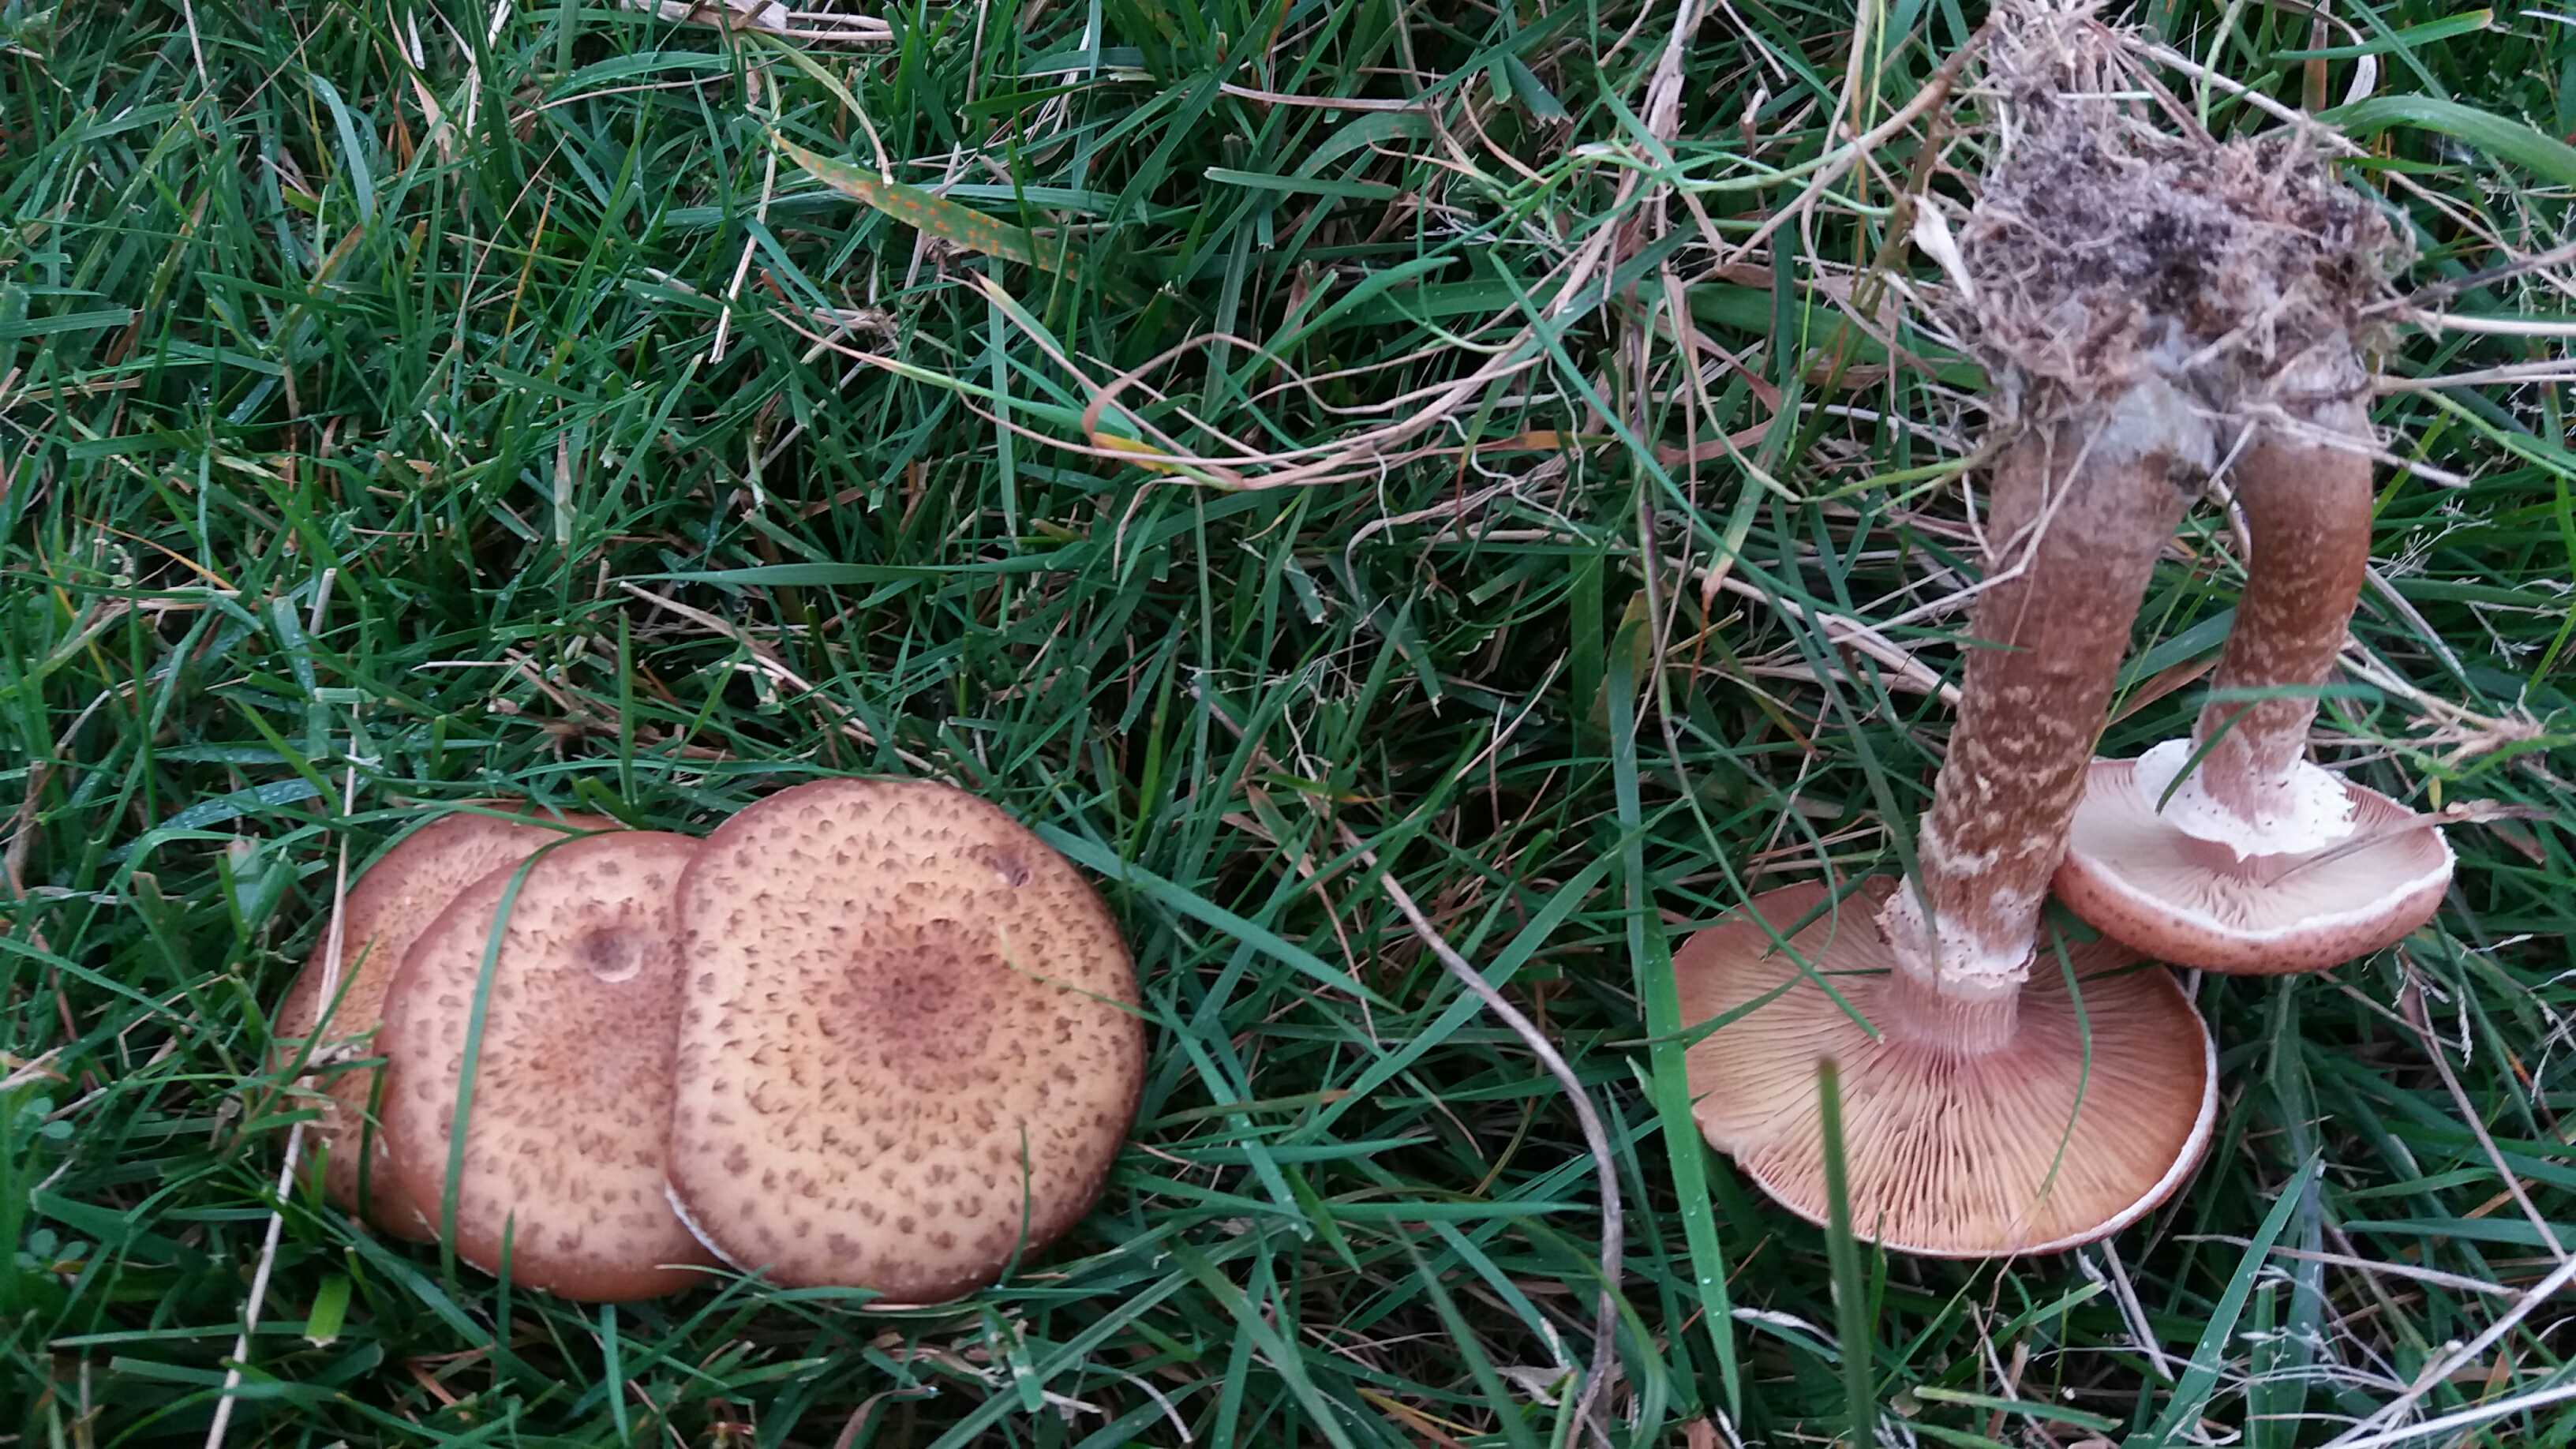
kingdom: Fungi
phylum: Basidiomycota
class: Agaricomycetes
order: Agaricales
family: Physalacriaceae
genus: Armillaria
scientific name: Armillaria ostoyae
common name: mørk honningsvamp
